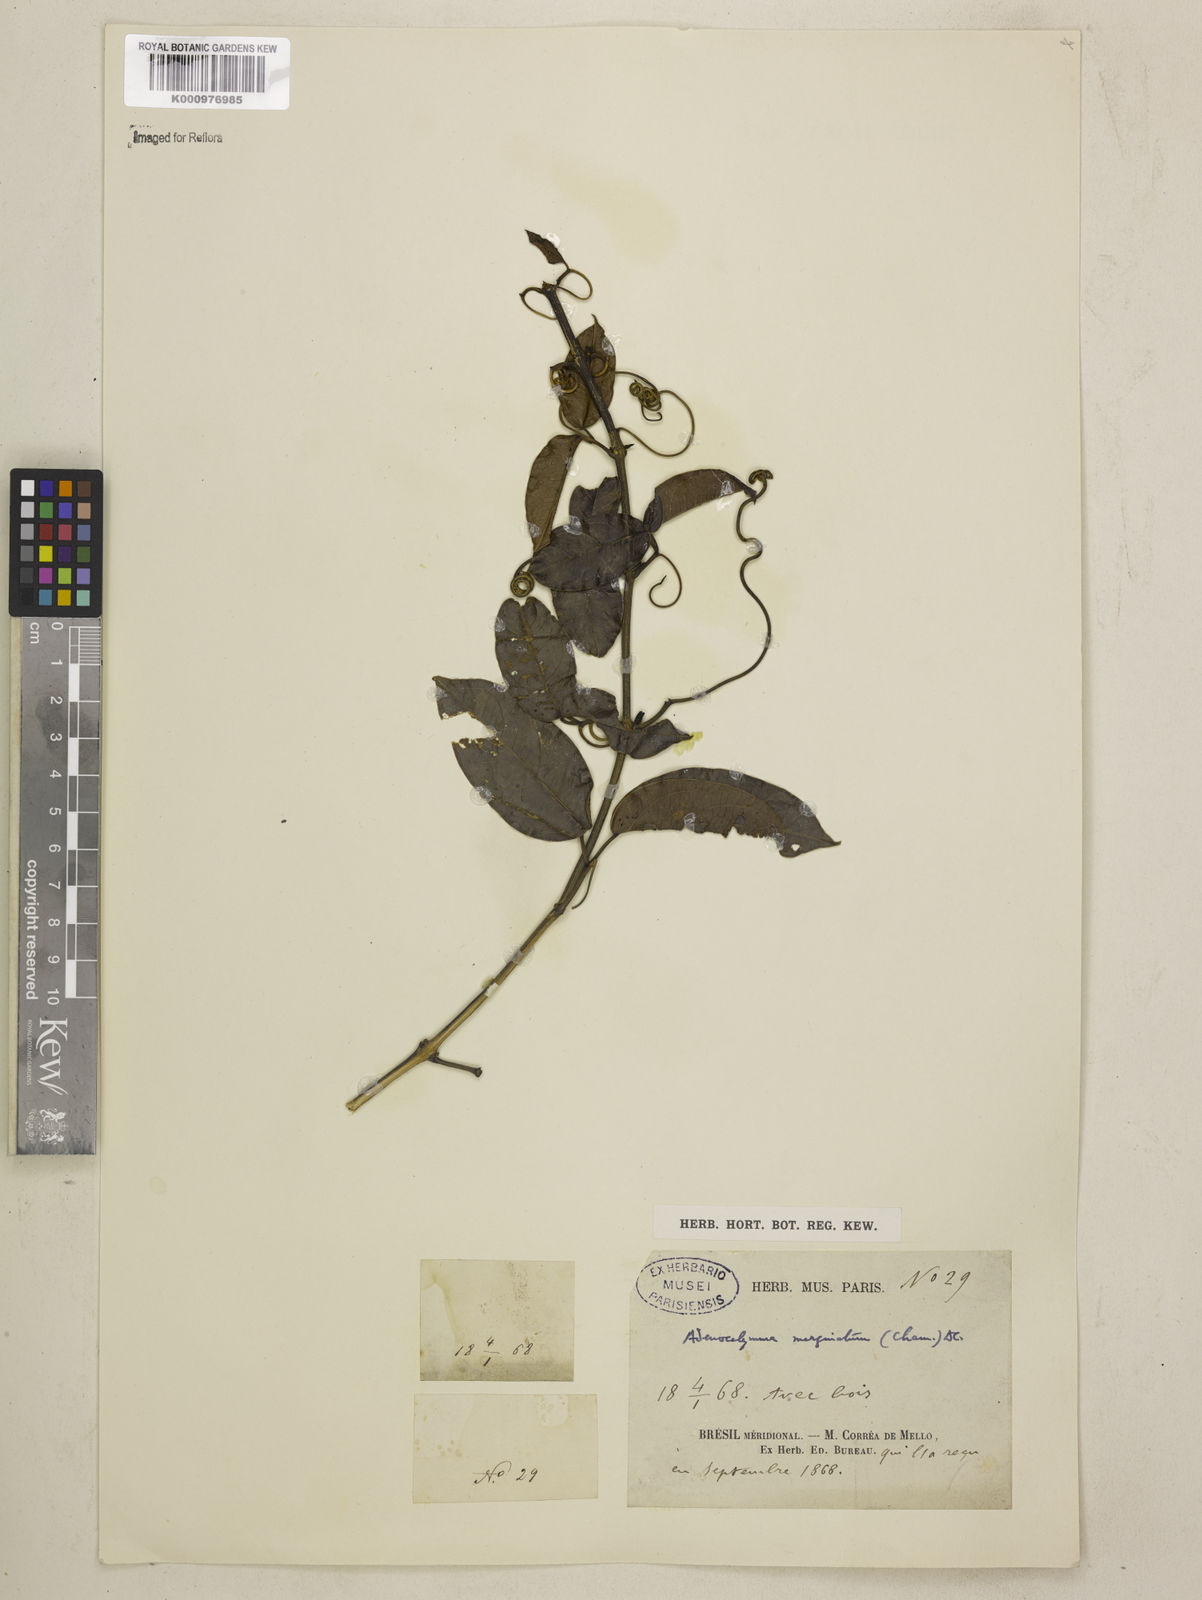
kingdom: Plantae
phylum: Tracheophyta
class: Magnoliopsida
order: Lamiales
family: Bignoniaceae
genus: Adenocalymma
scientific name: Adenocalymma marginatum
